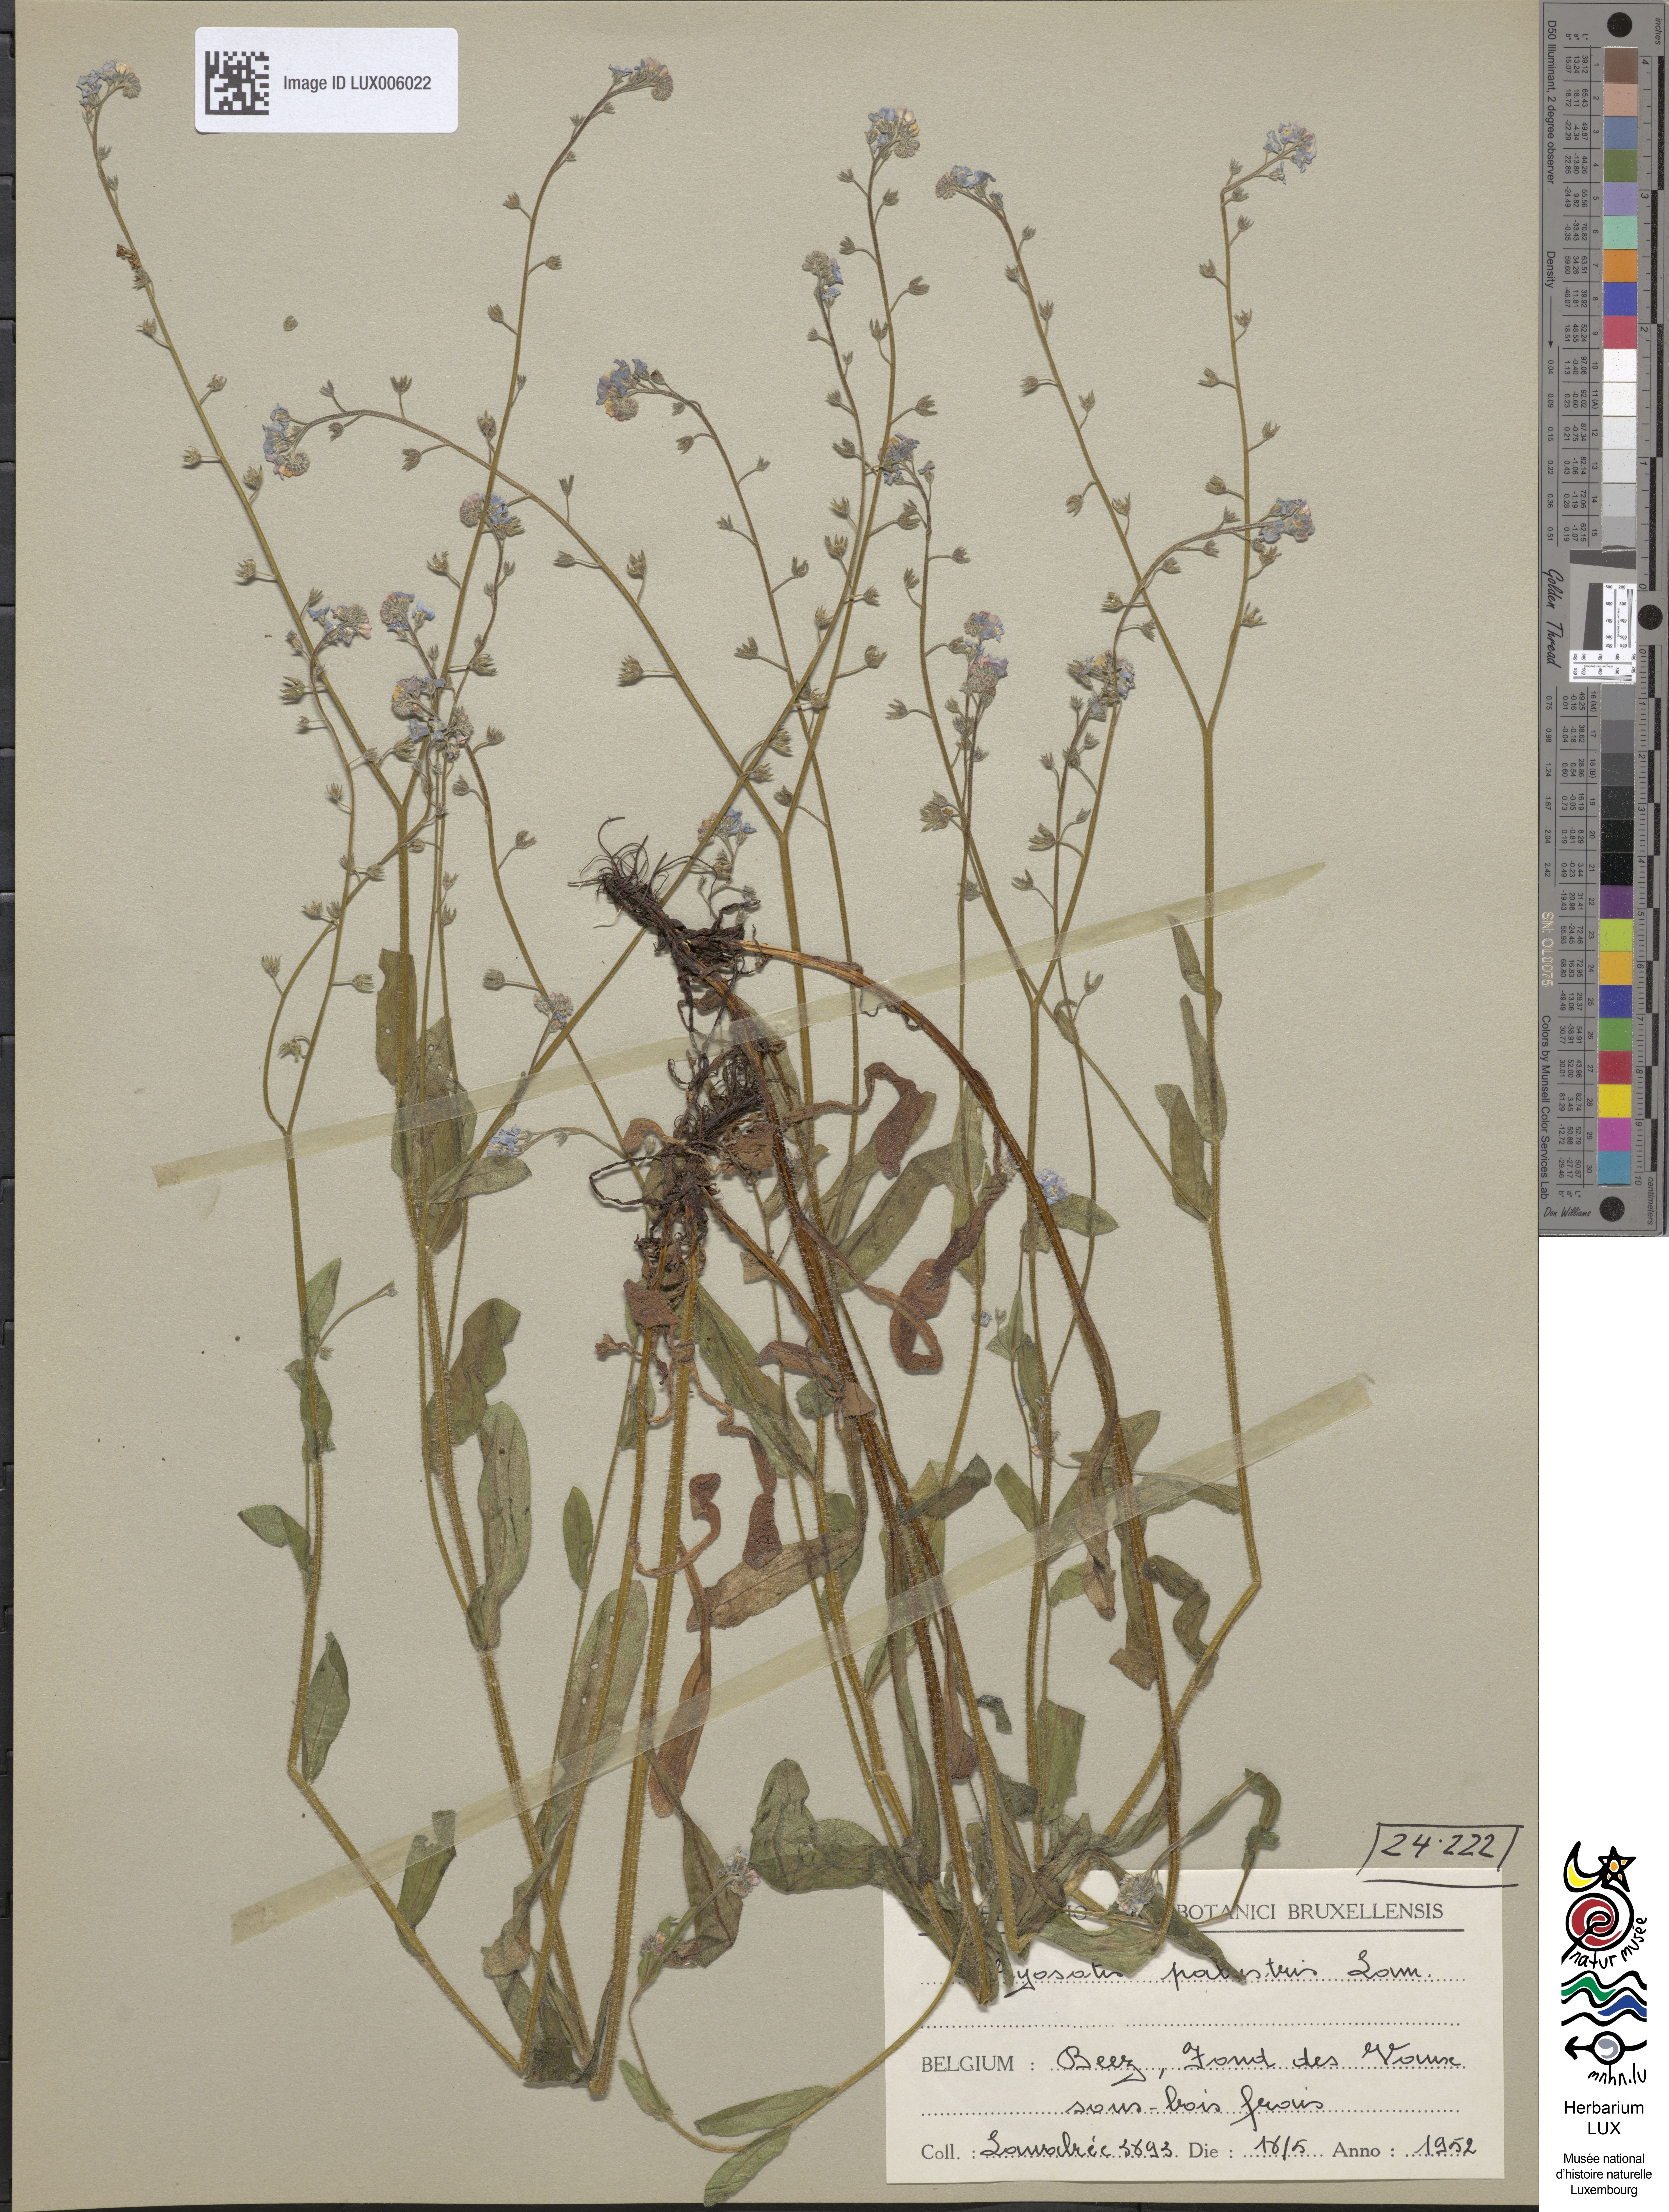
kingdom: Plantae
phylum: Tracheophyta
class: Magnoliopsida
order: Boraginales
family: Boraginaceae
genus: Myosotis
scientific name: Myosotis scorpioides
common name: Water forget-me-not
